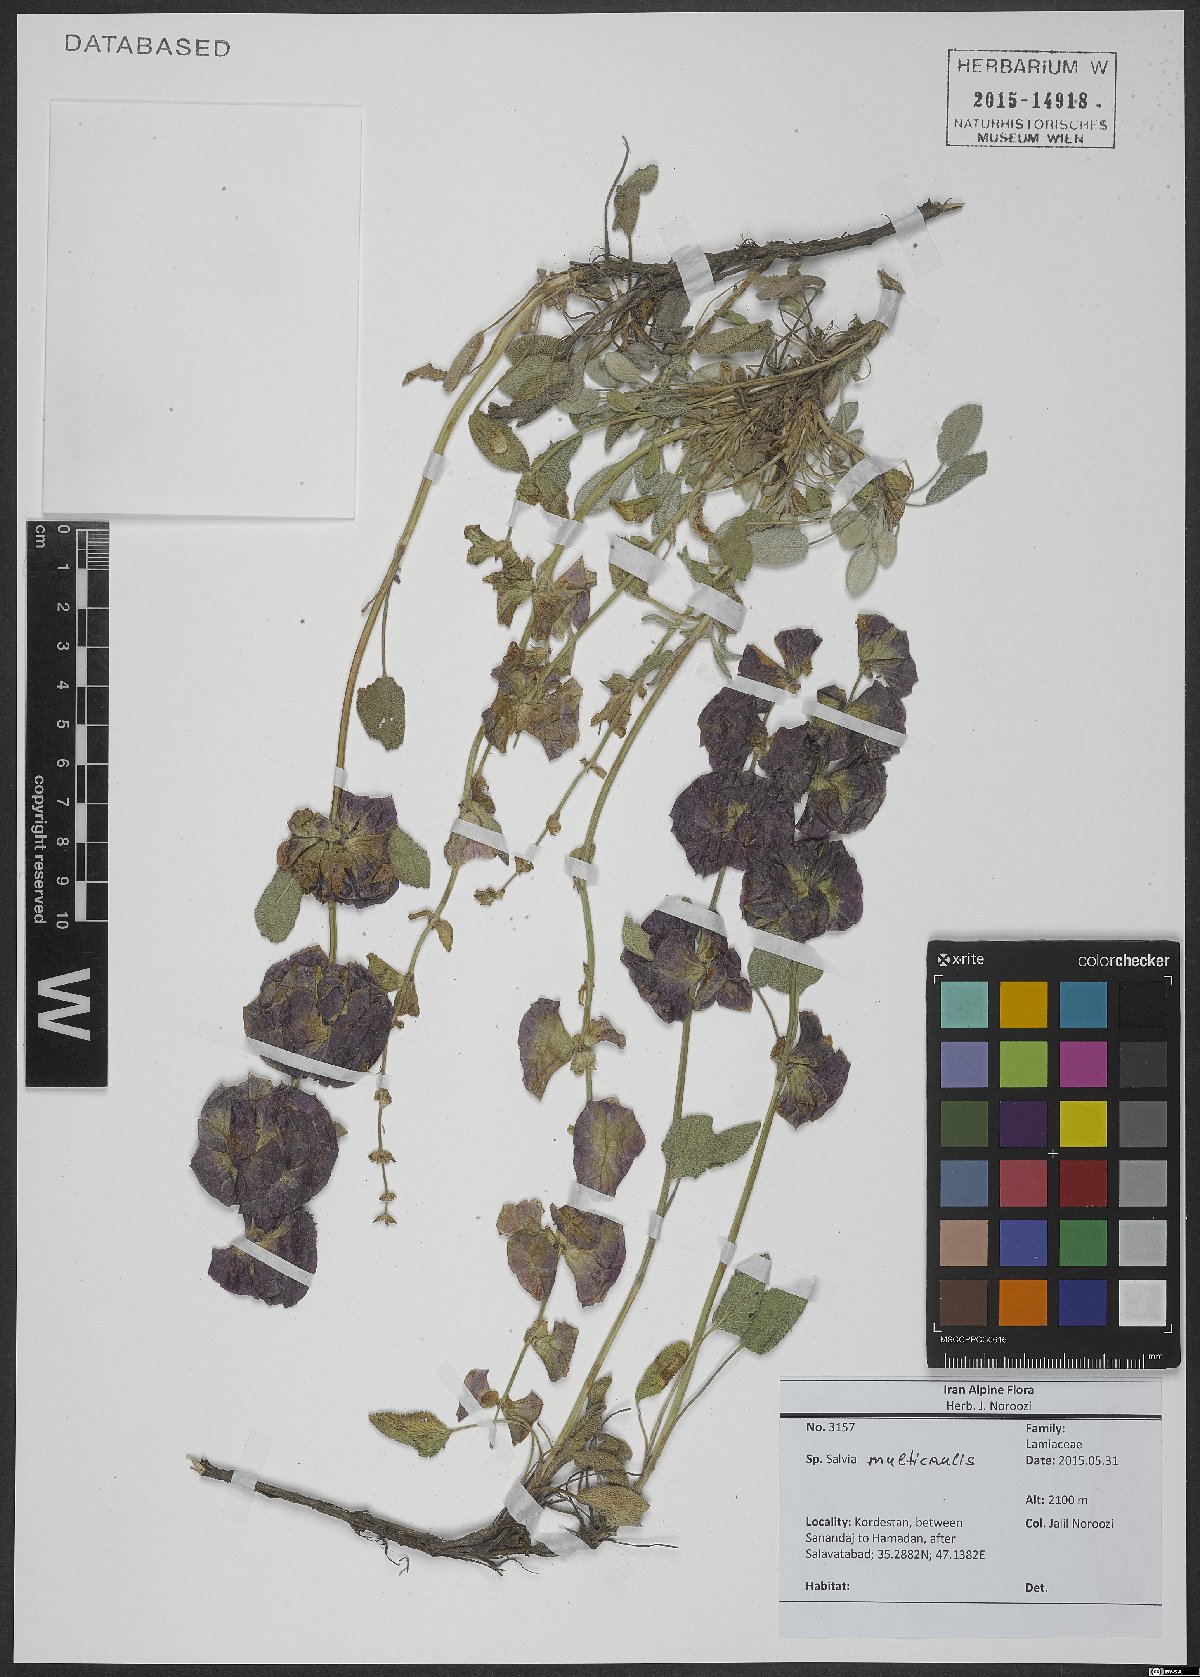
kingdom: Plantae
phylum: Tracheophyta
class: Magnoliopsida
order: Lamiales
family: Lamiaceae
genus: Salvia
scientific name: Salvia multicaulis
